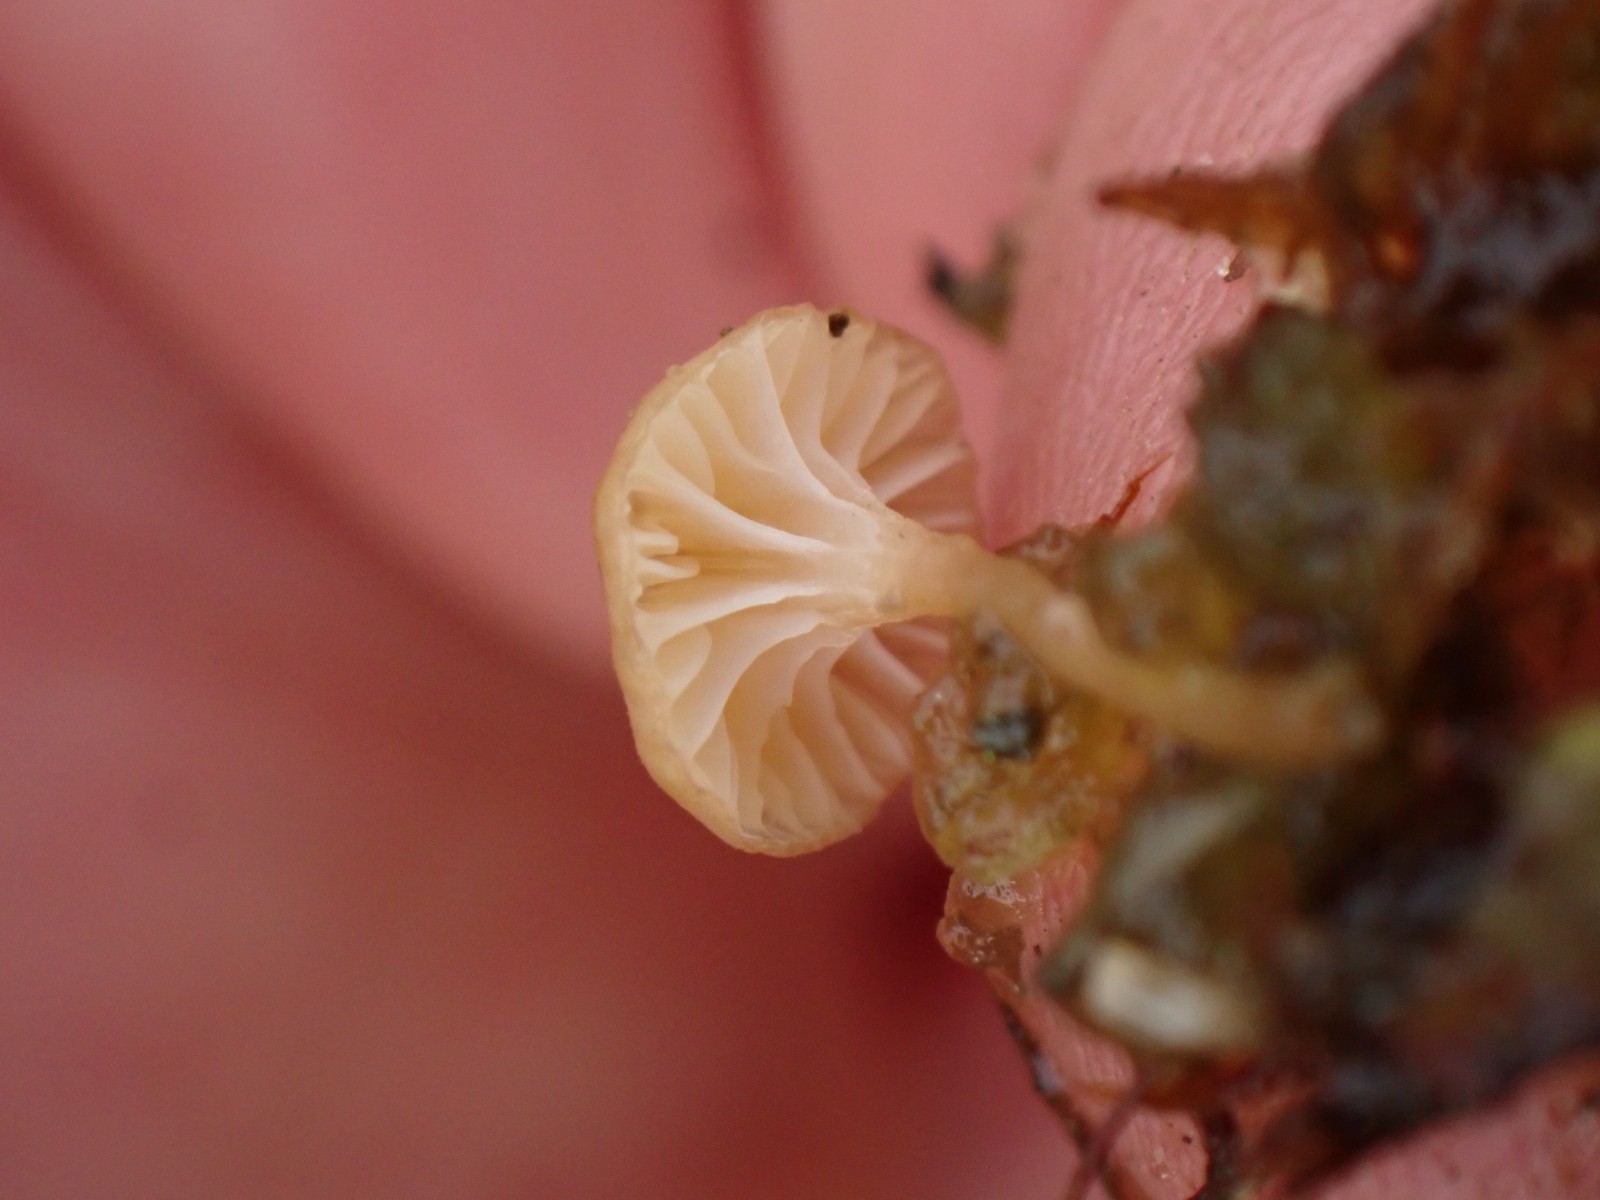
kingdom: Fungi
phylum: Basidiomycota
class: Agaricomycetes
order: Hymenochaetales
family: Rickenellaceae
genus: Rickenella
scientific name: Rickenella fibula
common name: orange mosnavlehat
